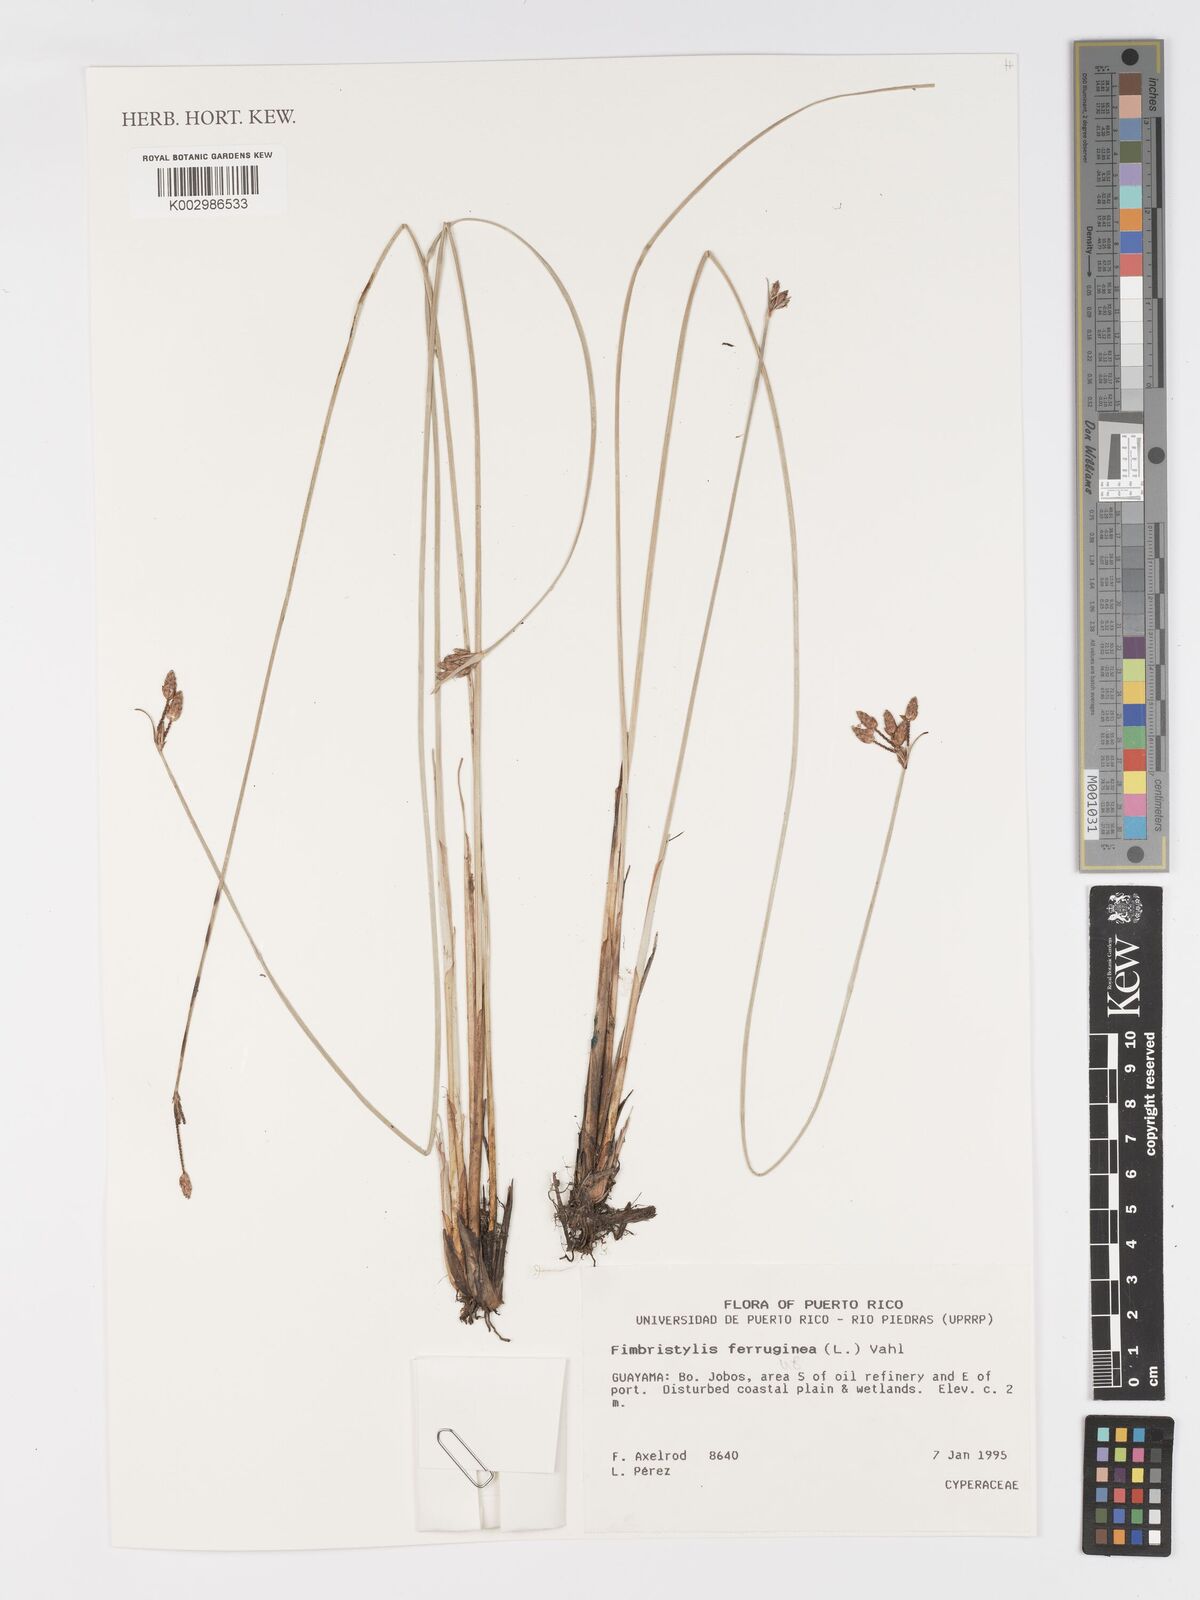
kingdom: Plantae
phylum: Tracheophyta
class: Liliopsida
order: Poales
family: Cyperaceae
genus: Fimbristylis
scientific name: Fimbristylis ferruginea
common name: West indian fimbry
